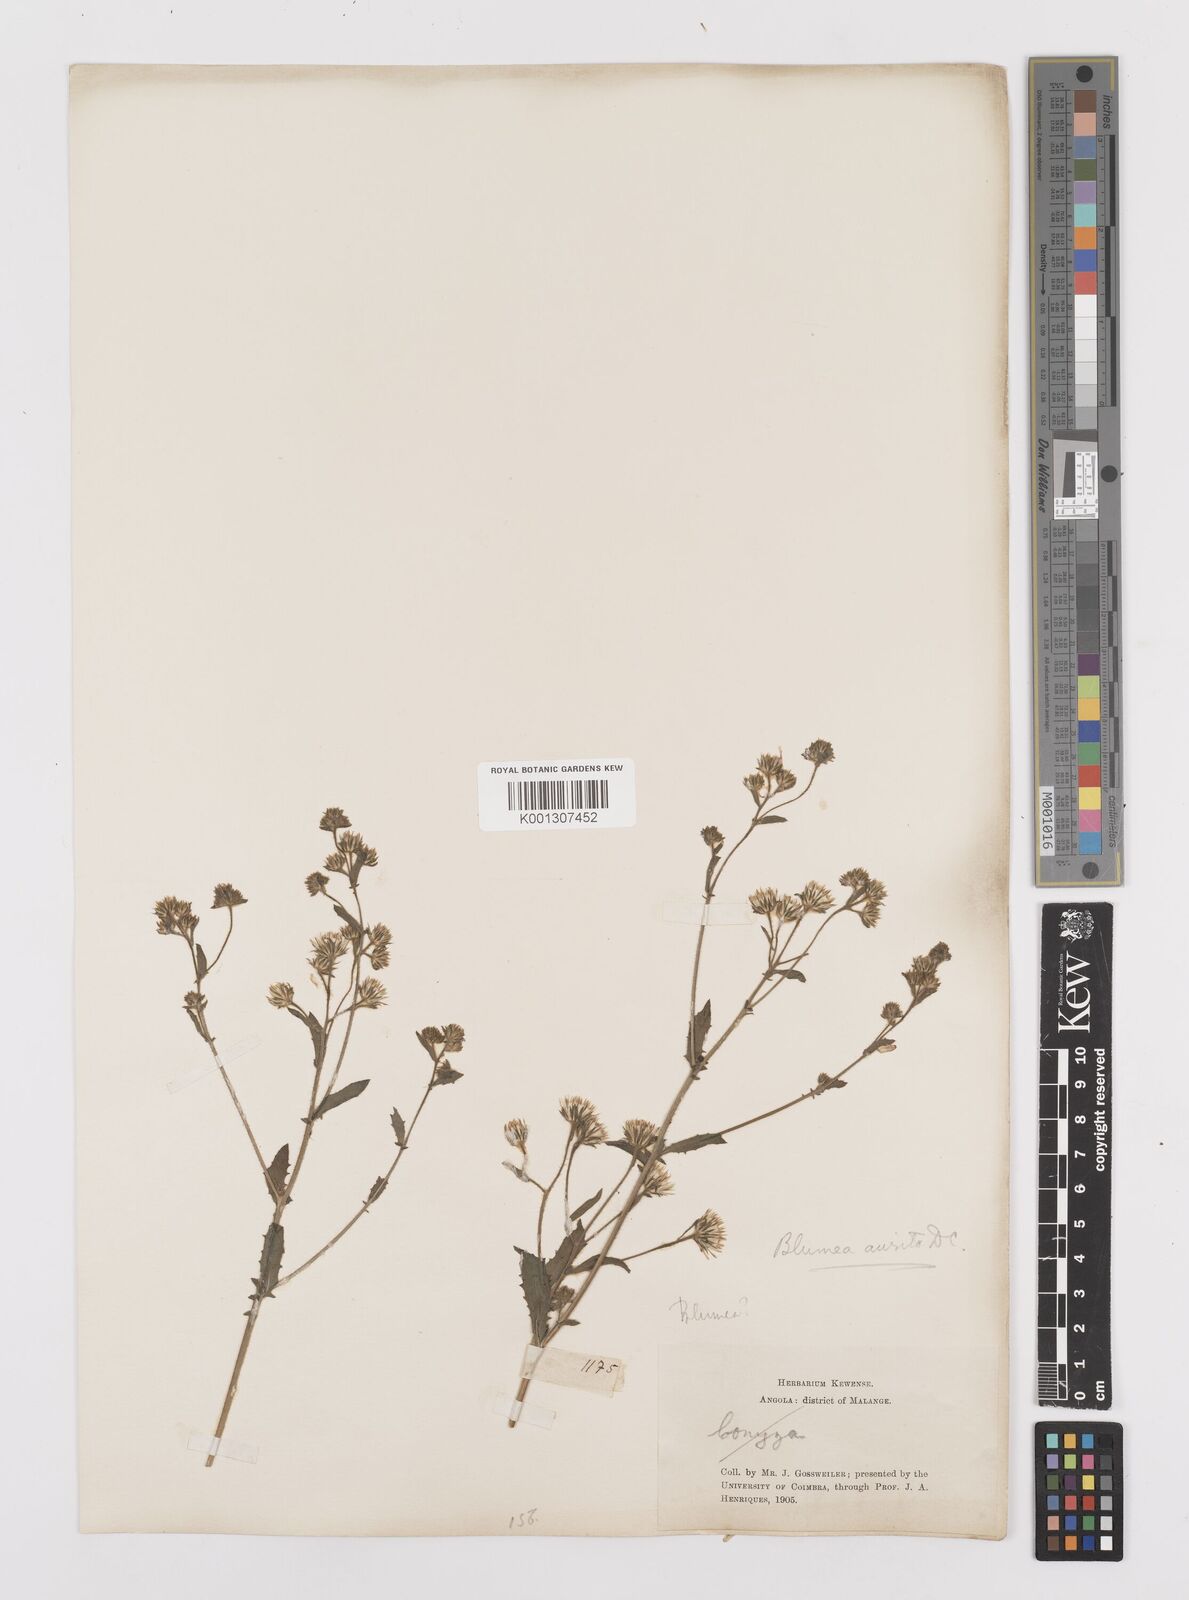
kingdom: Plantae
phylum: Tracheophyta
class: Magnoliopsida
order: Asterales
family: Asteraceae
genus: Pseudoconyza
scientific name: Pseudoconyza
